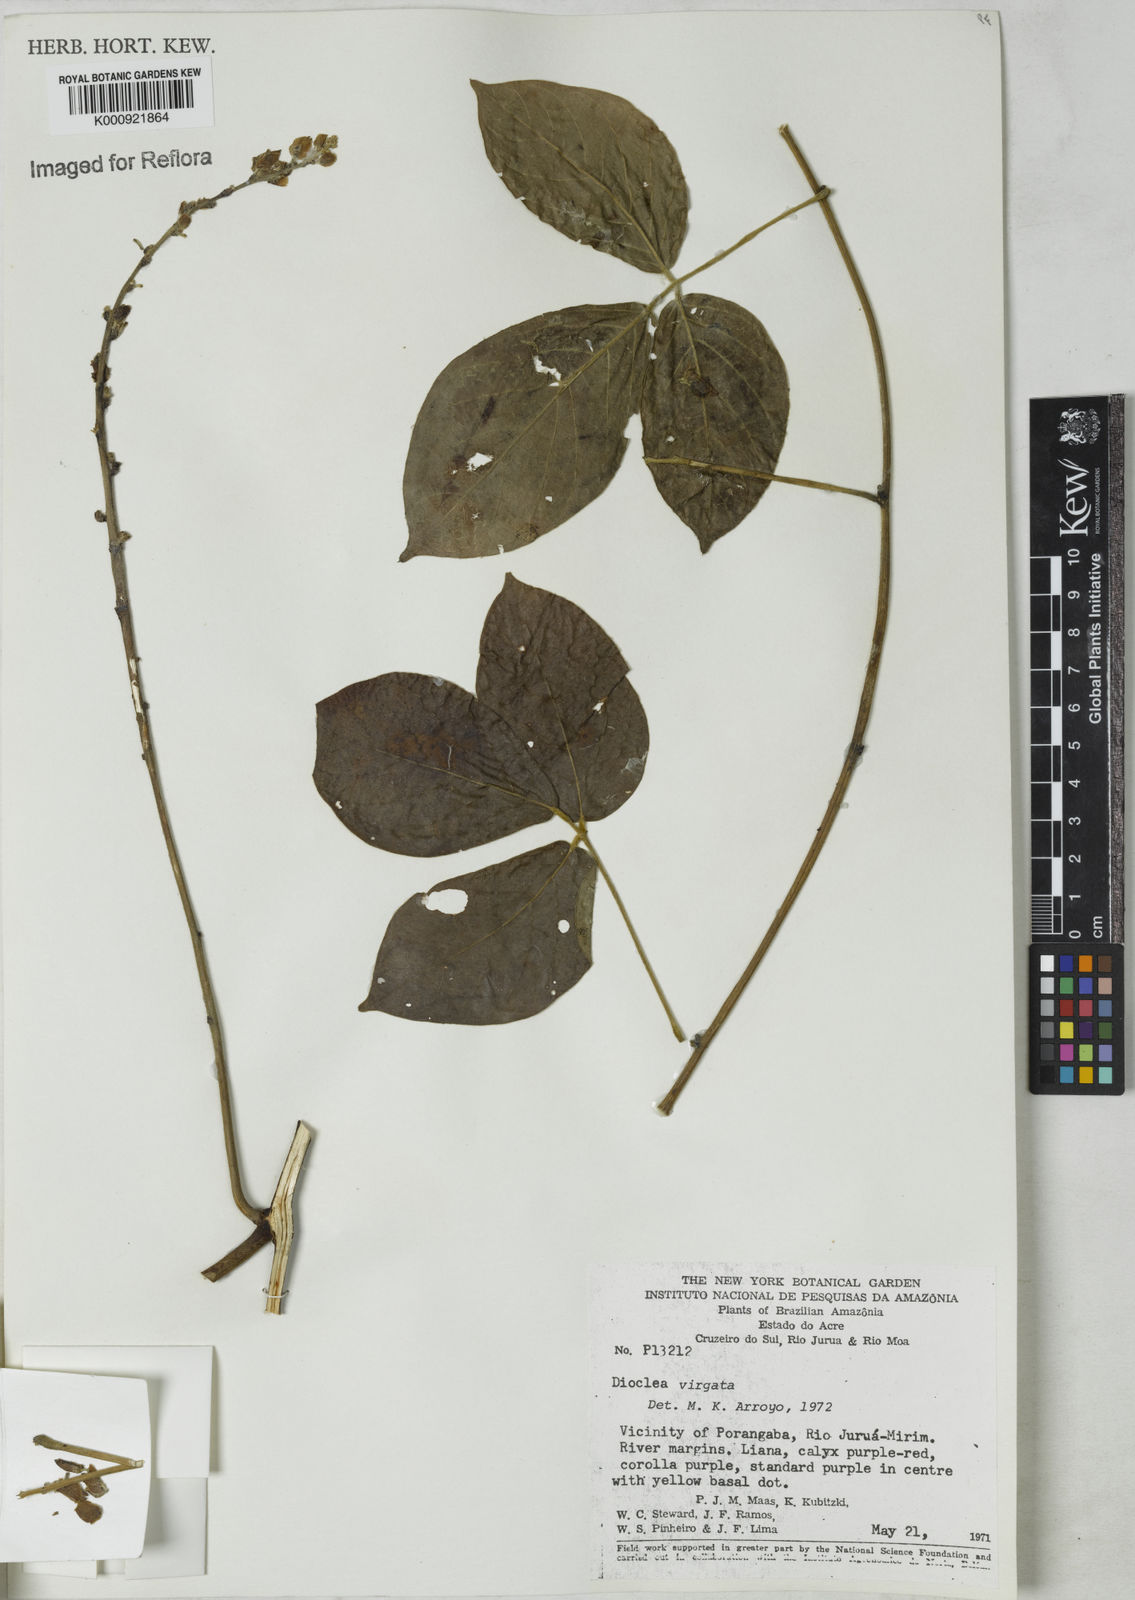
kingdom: Plantae
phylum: Tracheophyta
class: Magnoliopsida
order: Fabales
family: Fabaceae
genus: Dioclea
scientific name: Dioclea virgata
